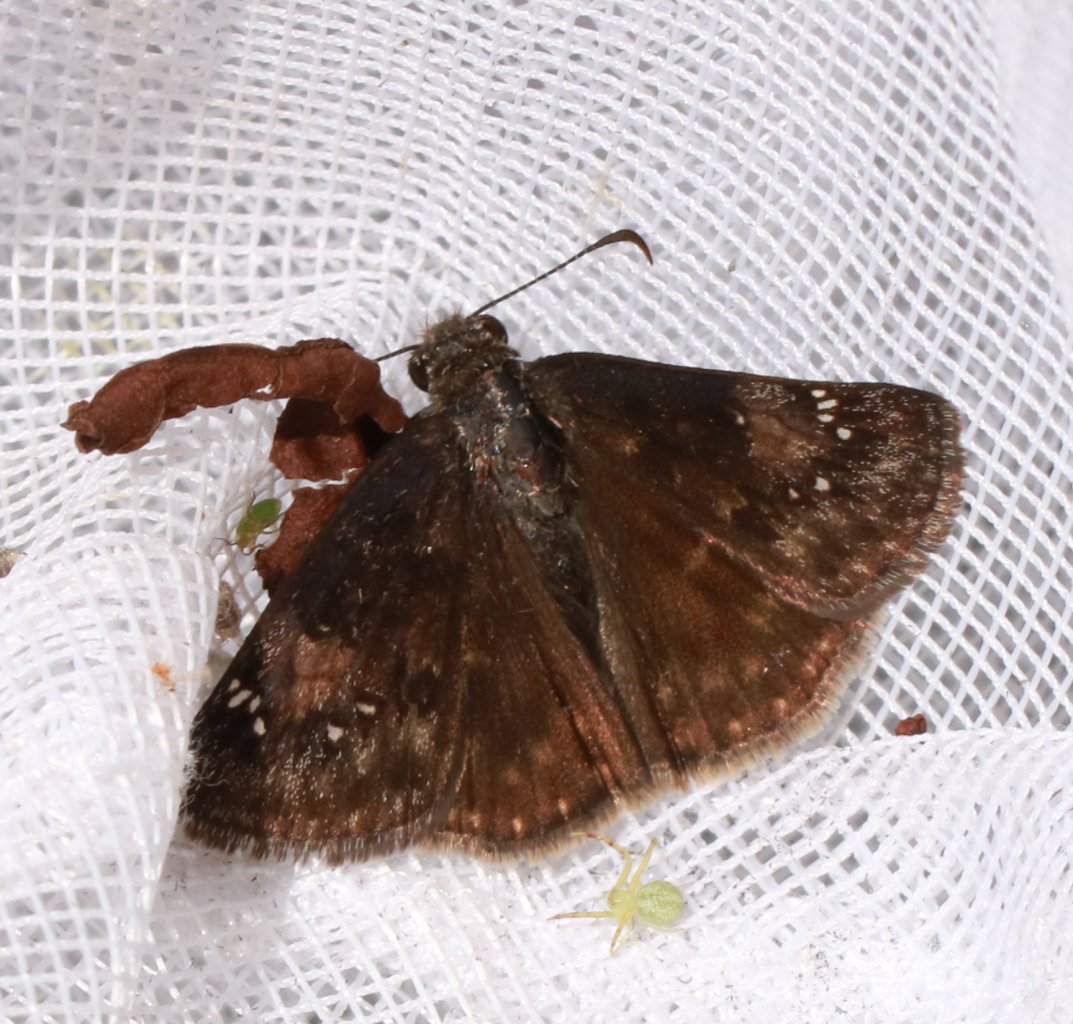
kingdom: Animalia
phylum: Arthropoda
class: Insecta
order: Lepidoptera
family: Hesperiidae
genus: Gesta
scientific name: Gesta
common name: Wild Indigo Duskywing
